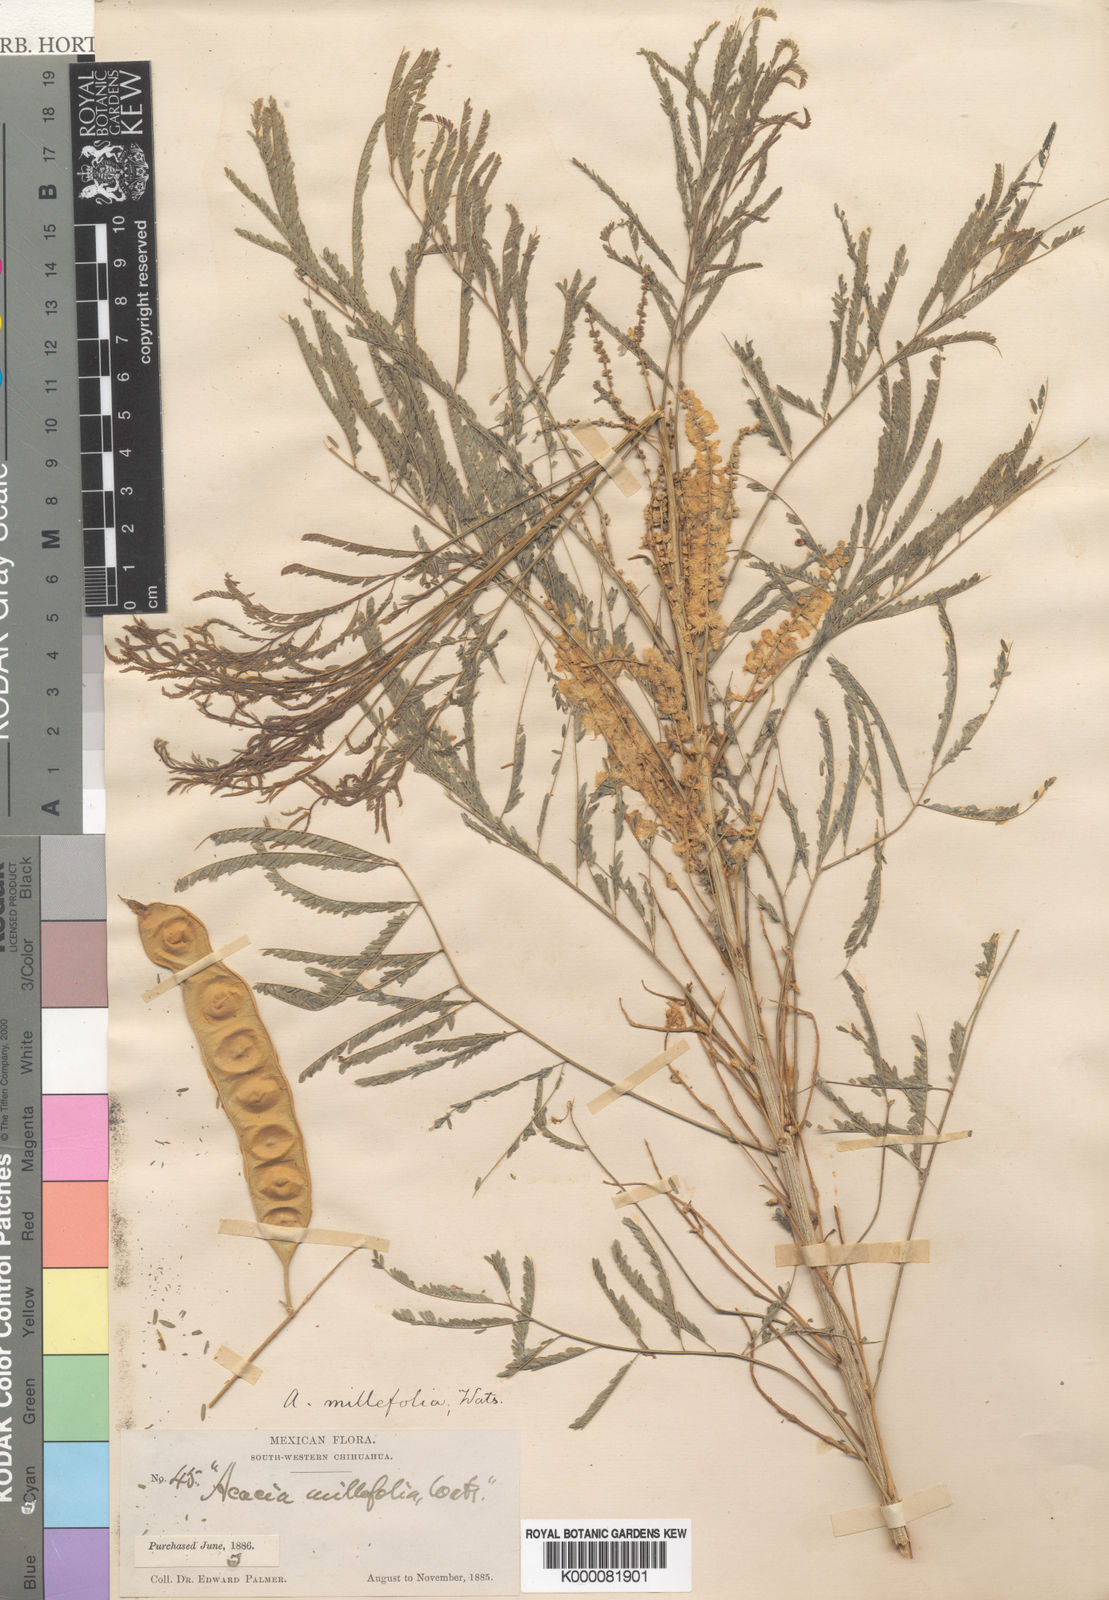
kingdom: Plantae
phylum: Tracheophyta
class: Magnoliopsida
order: Fabales
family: Fabaceae
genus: Mariosousa
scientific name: Mariosousa millefolia
